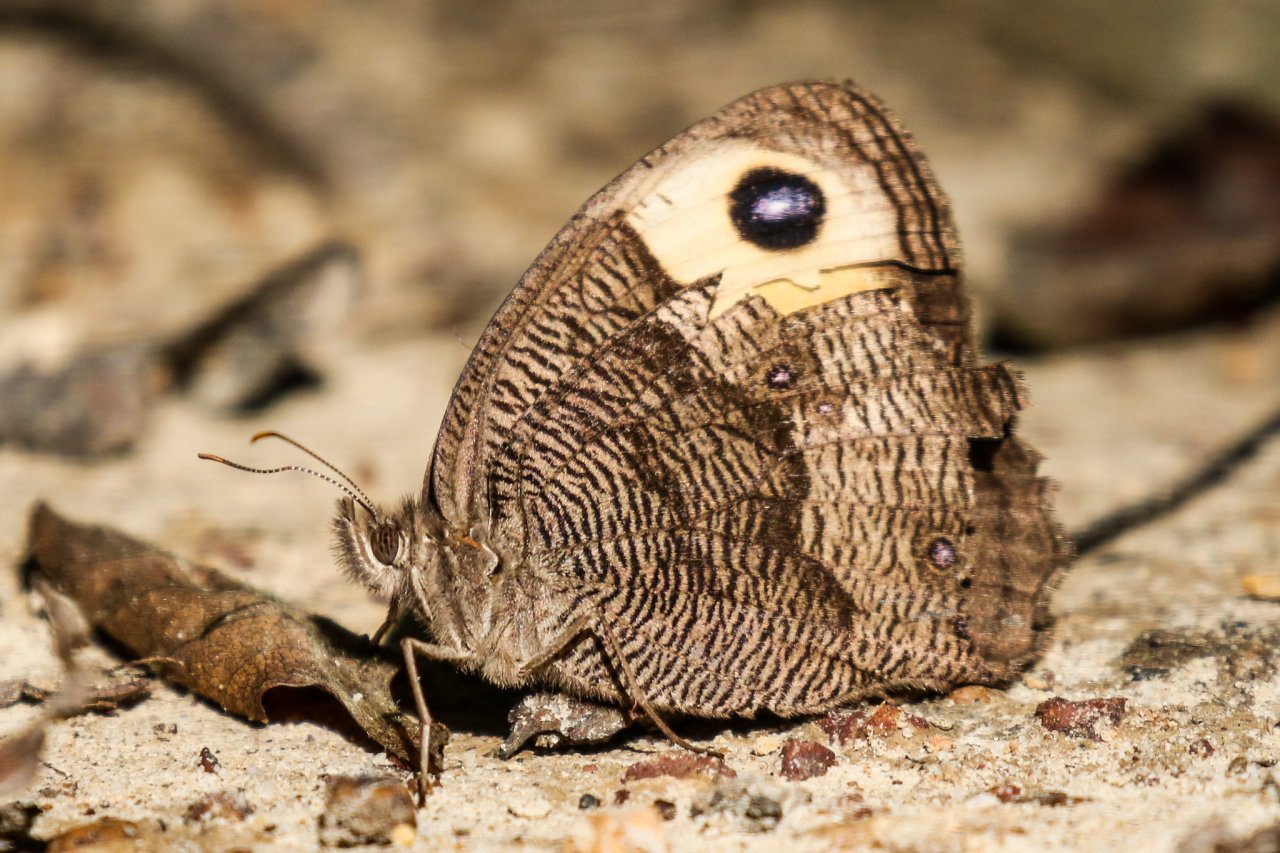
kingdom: Animalia
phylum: Arthropoda
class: Insecta
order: Lepidoptera
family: Nymphalidae
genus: Cercyonis
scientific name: Cercyonis pegala
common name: Common Wood-Nymph
